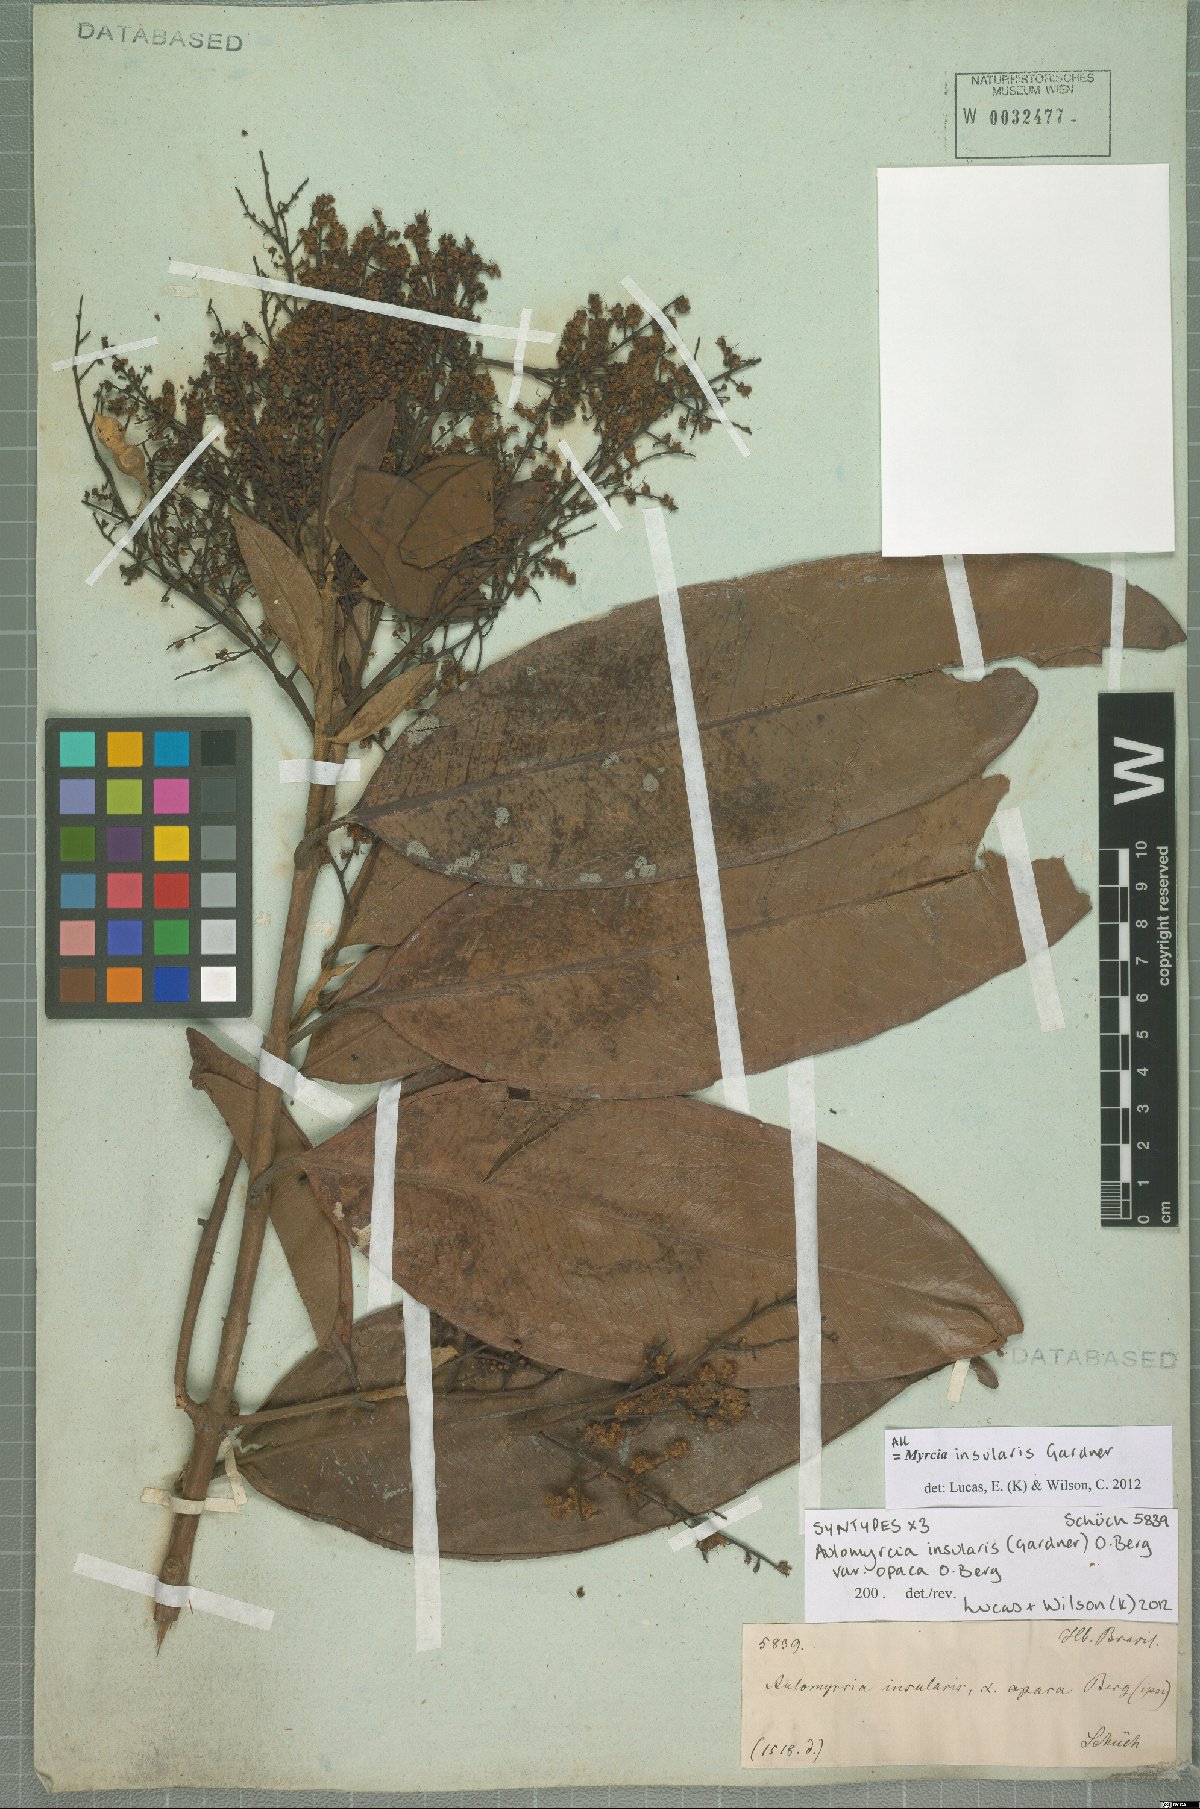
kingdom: Plantae
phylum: Tracheophyta
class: Magnoliopsida
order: Myrtales
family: Myrtaceae
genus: Myrcia
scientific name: Myrcia insularis
